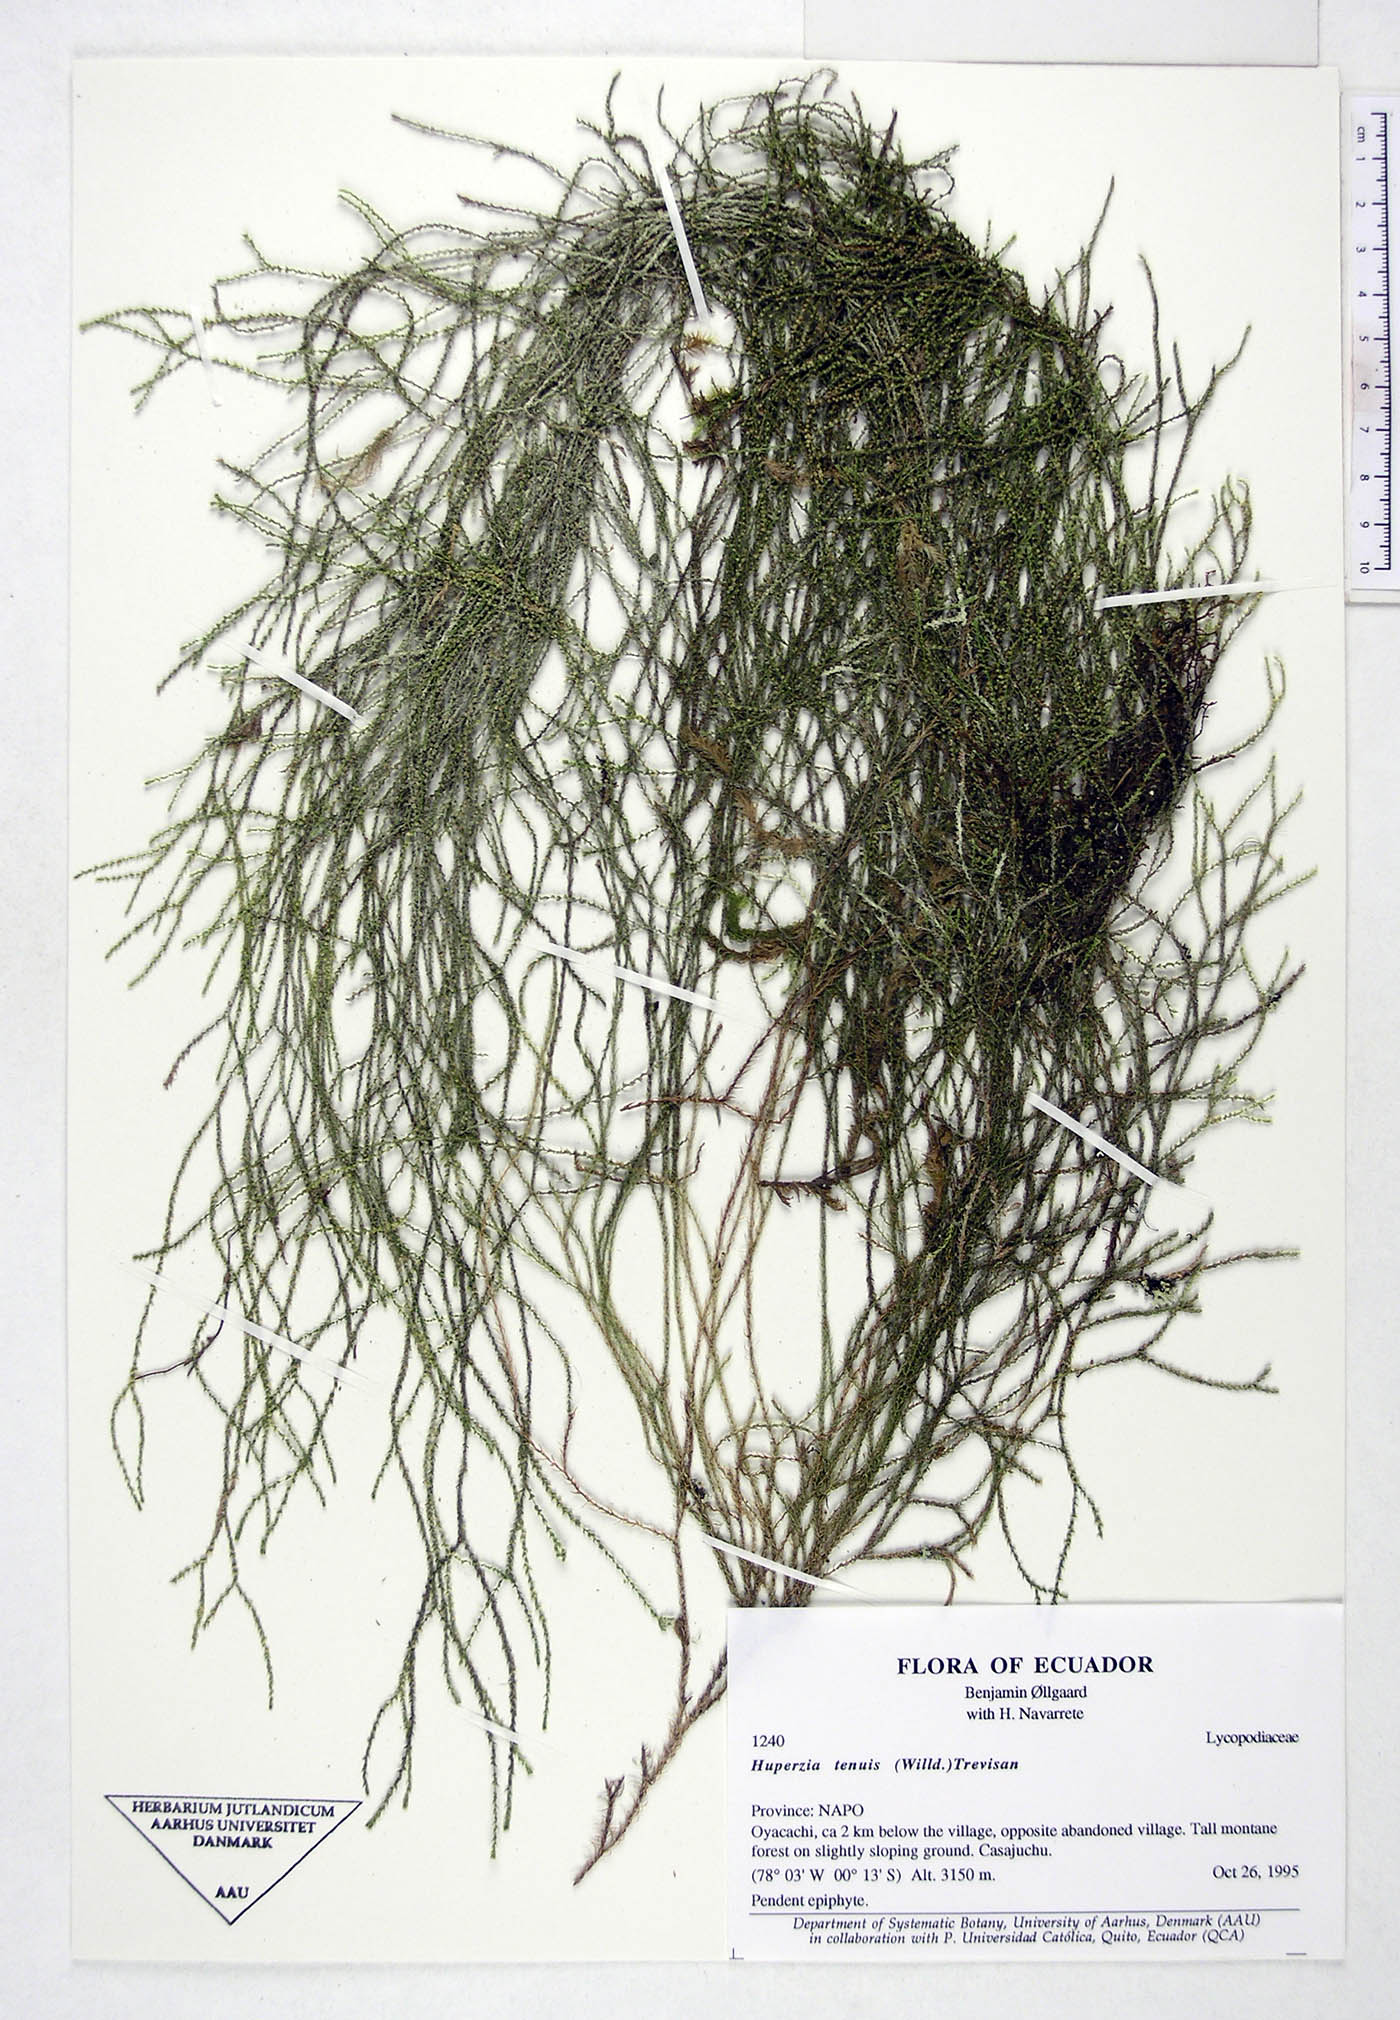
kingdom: Plantae
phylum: Tracheophyta
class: Lycopodiopsida
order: Lycopodiales
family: Lycopodiaceae
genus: Phlegmariurus
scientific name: Phlegmariurus tenuis
